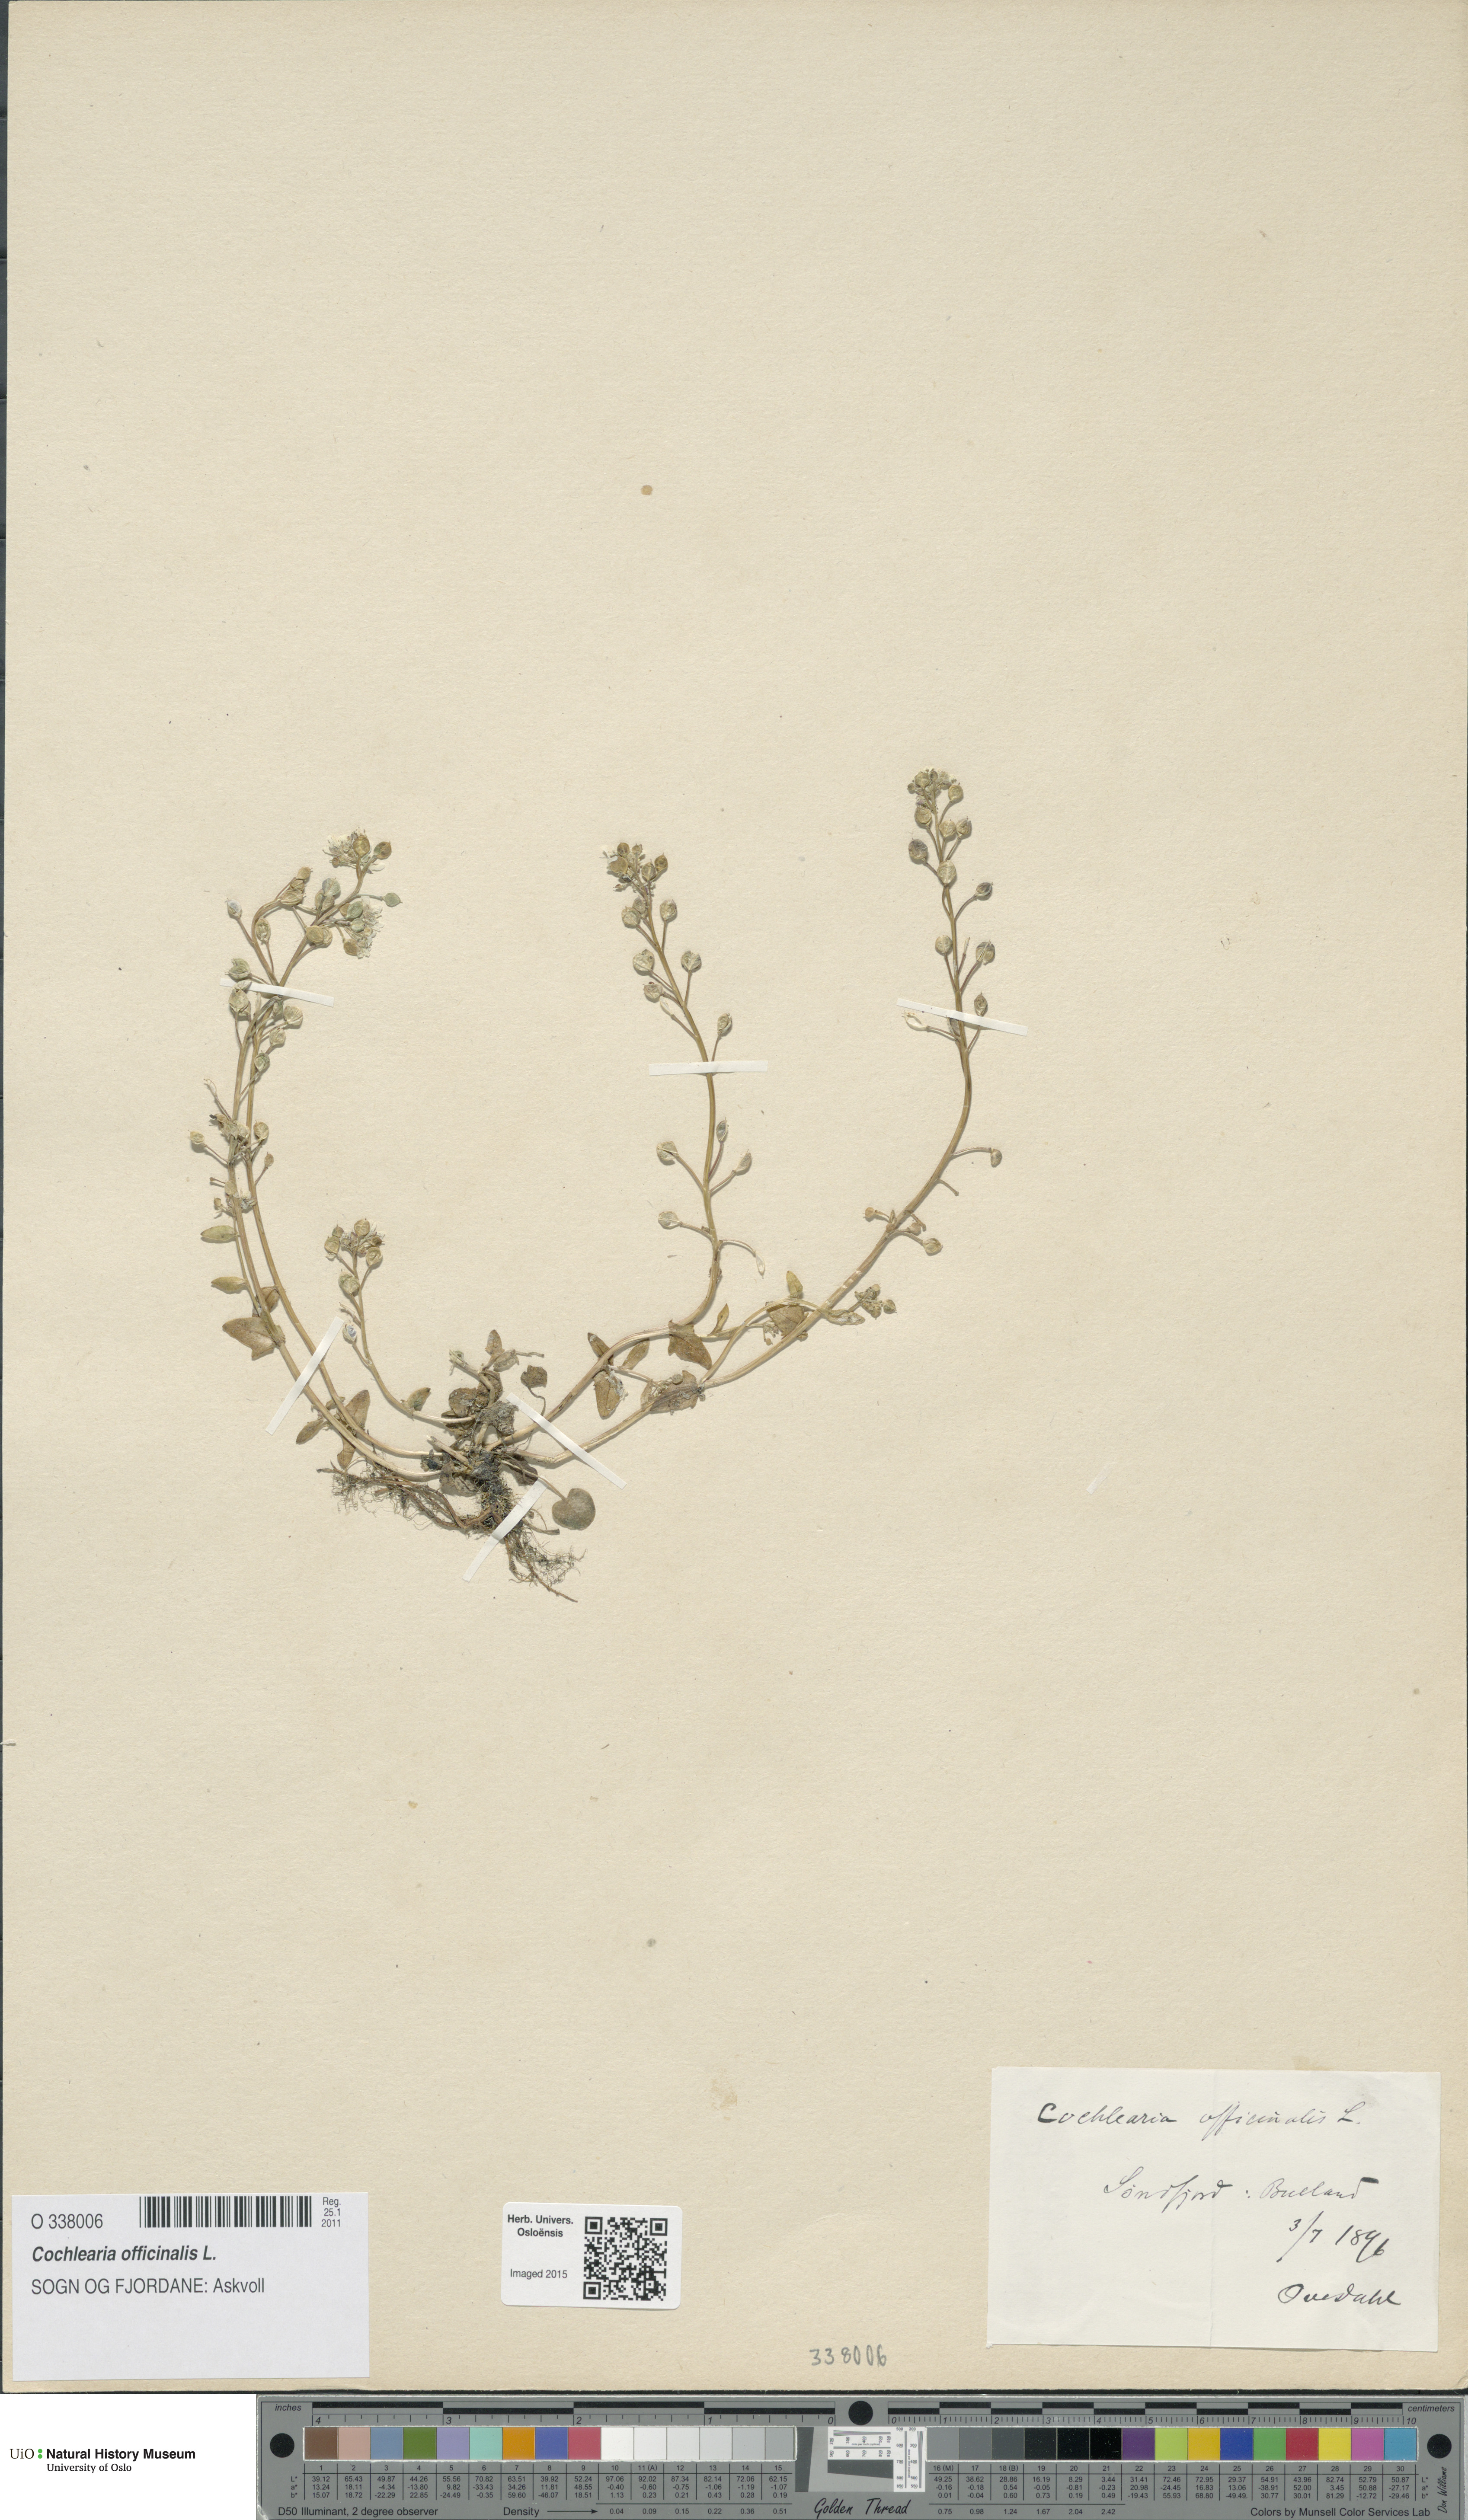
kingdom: Plantae
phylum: Tracheophyta
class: Magnoliopsida
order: Brassicales
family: Brassicaceae
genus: Cochlearia
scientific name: Cochlearia officinalis
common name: Scurvy-grass
